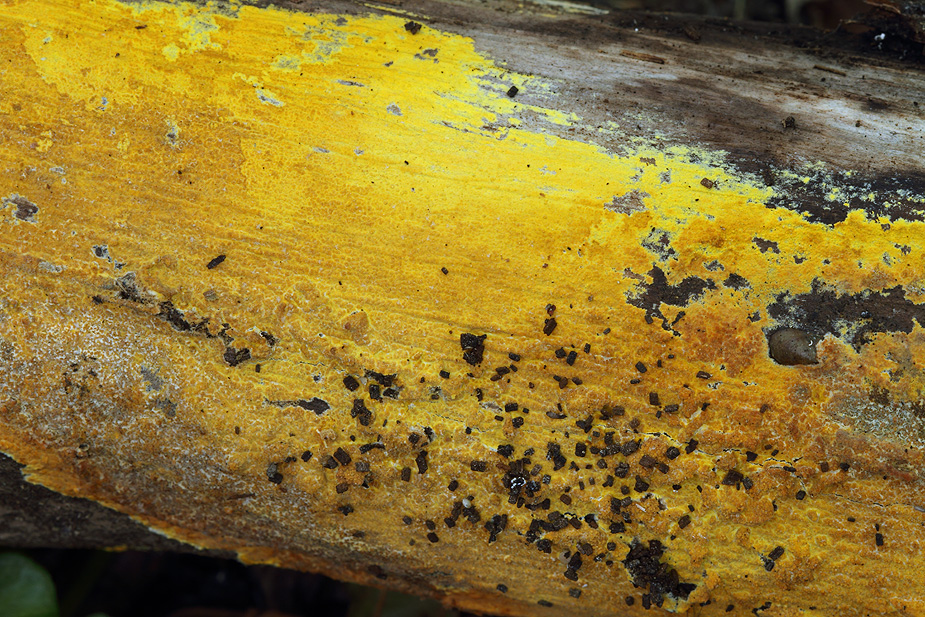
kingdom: Fungi
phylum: Basidiomycota
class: Agaricomycetes
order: Polyporales
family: Meruliaceae
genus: Phlebiodontia
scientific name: Phlebiodontia subochracea
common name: svovl-åresvamp
